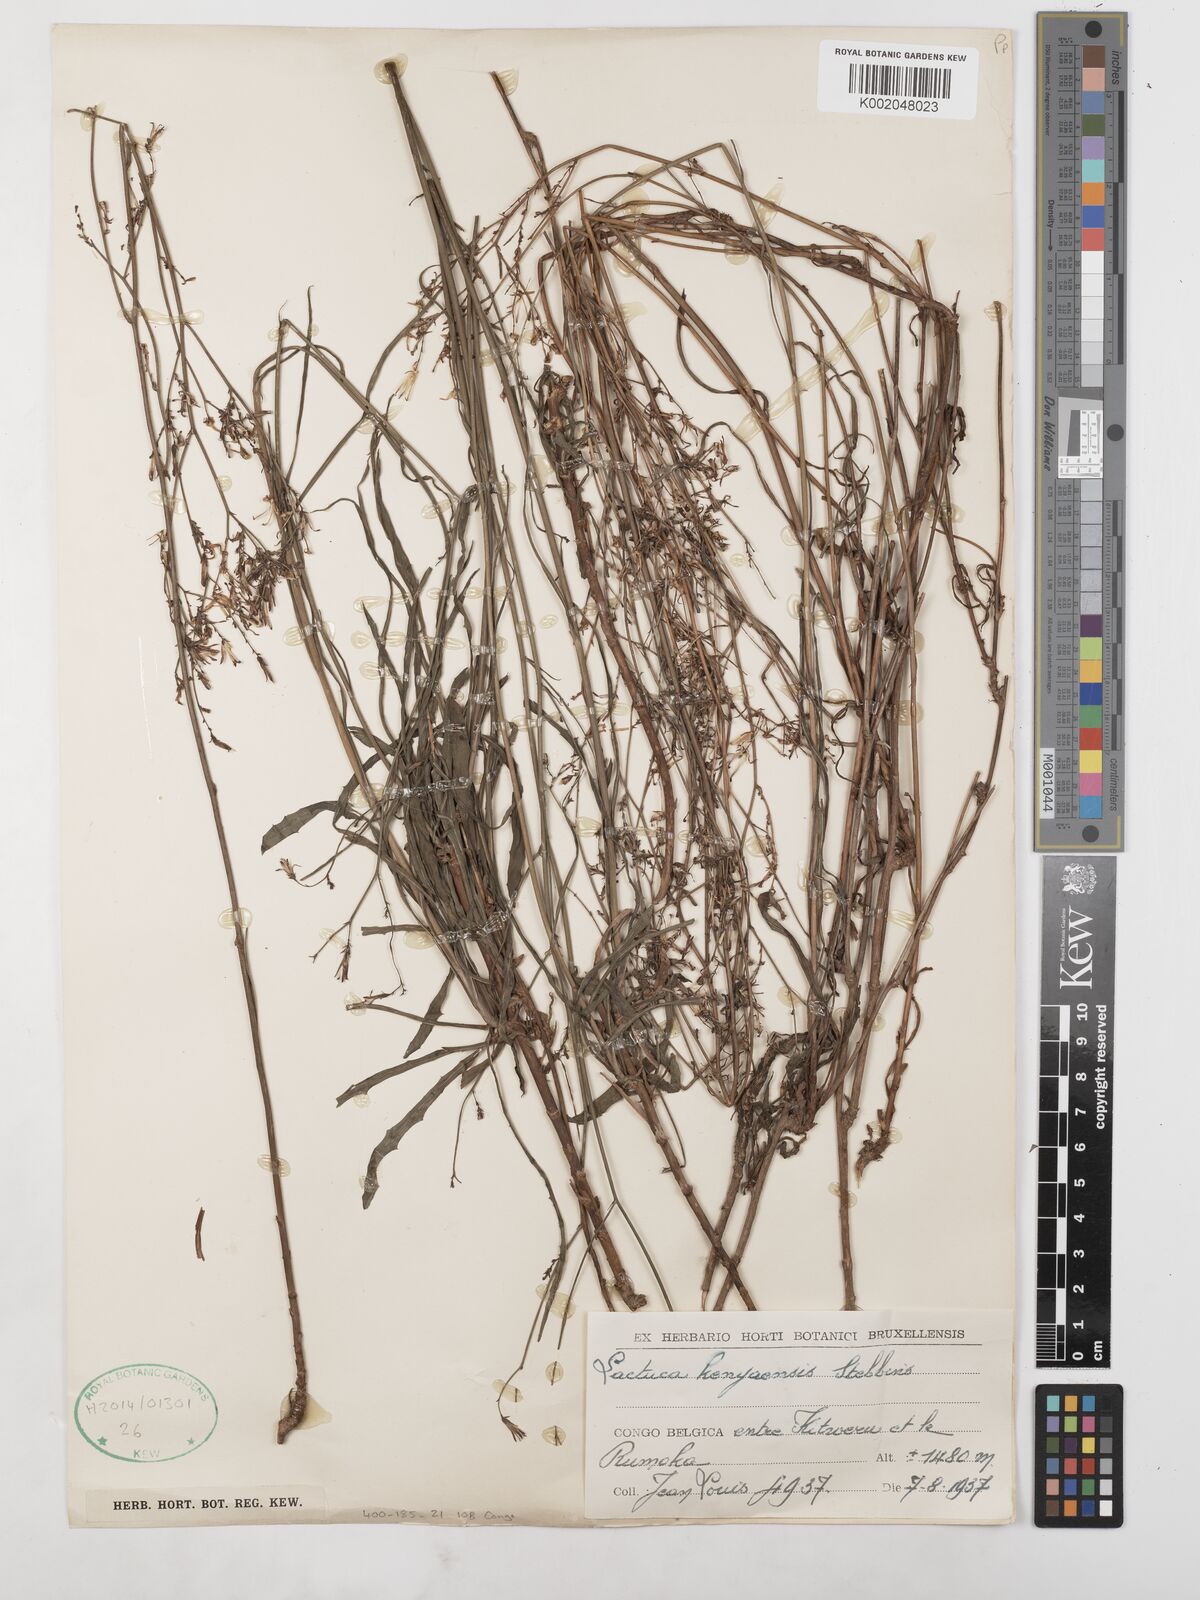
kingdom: Plantae
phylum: Tracheophyta
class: Magnoliopsida
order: Asterales
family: Asteraceae
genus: Lactuca
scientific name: Lactuca inermis
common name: Wild lettuce
